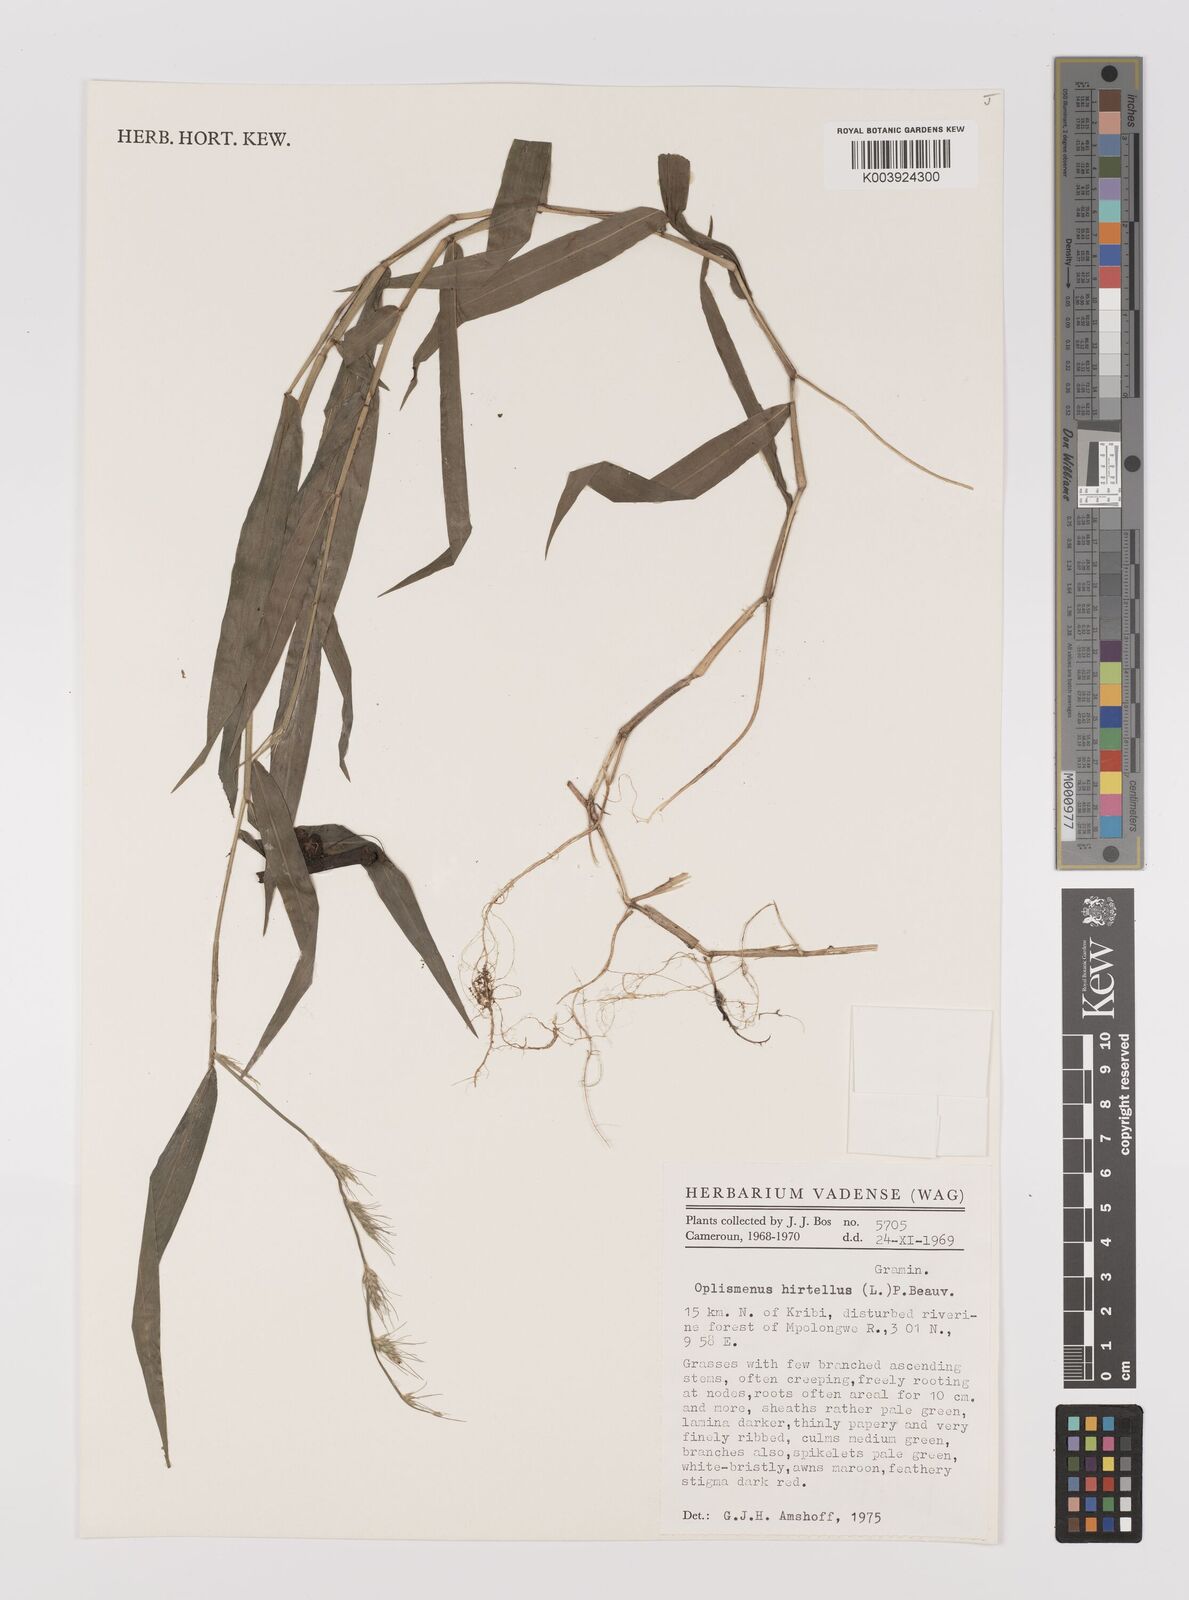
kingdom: Plantae
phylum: Tracheophyta
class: Liliopsida
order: Poales
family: Poaceae
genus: Oplismenus
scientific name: Oplismenus hirtellus
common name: Basketgrass
